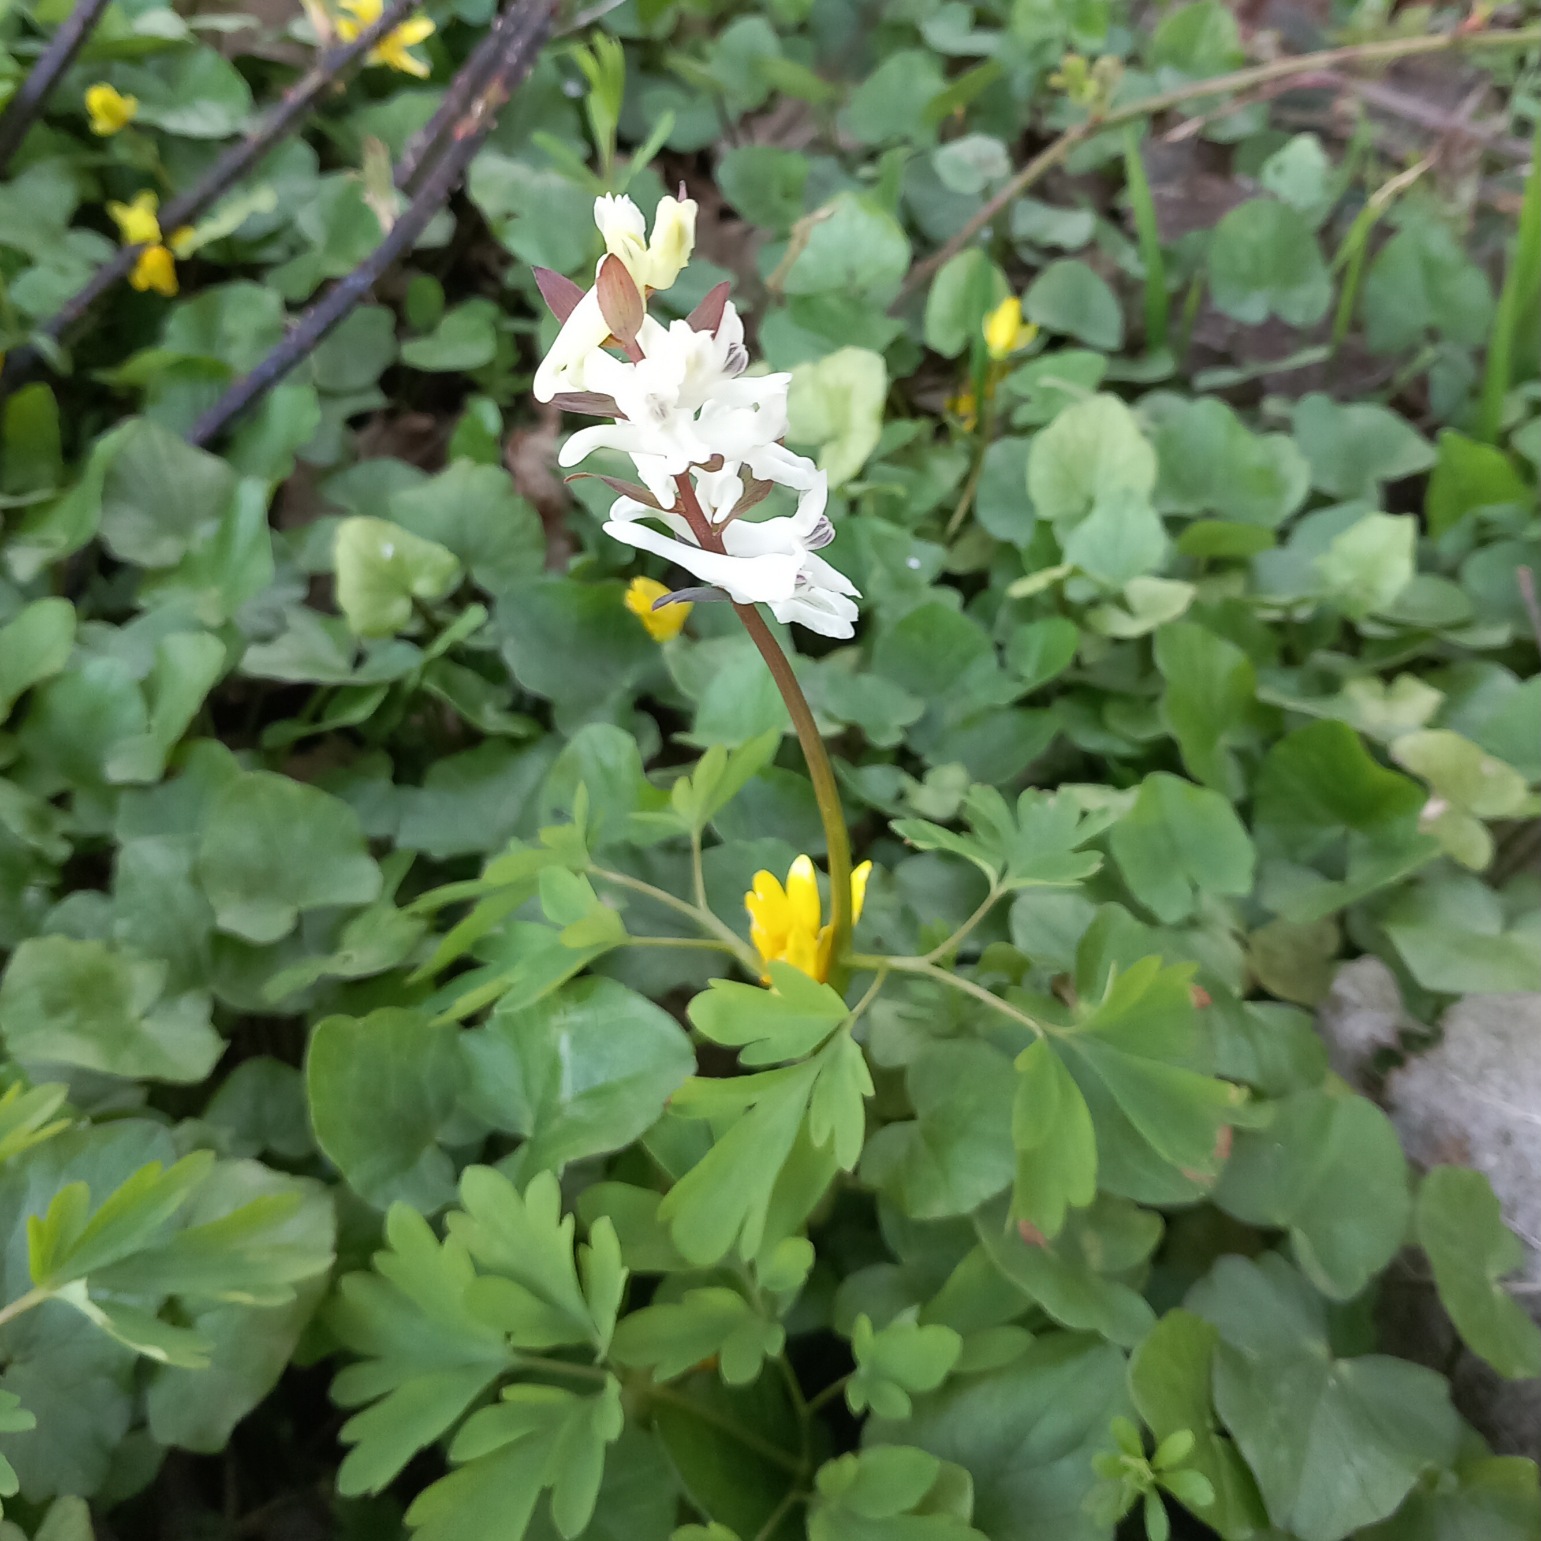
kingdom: Plantae
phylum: Tracheophyta
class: Magnoliopsida
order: Ranunculales
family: Papaveraceae
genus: Corydalis
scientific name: Corydalis cava
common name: Hulrodet lærkespore
